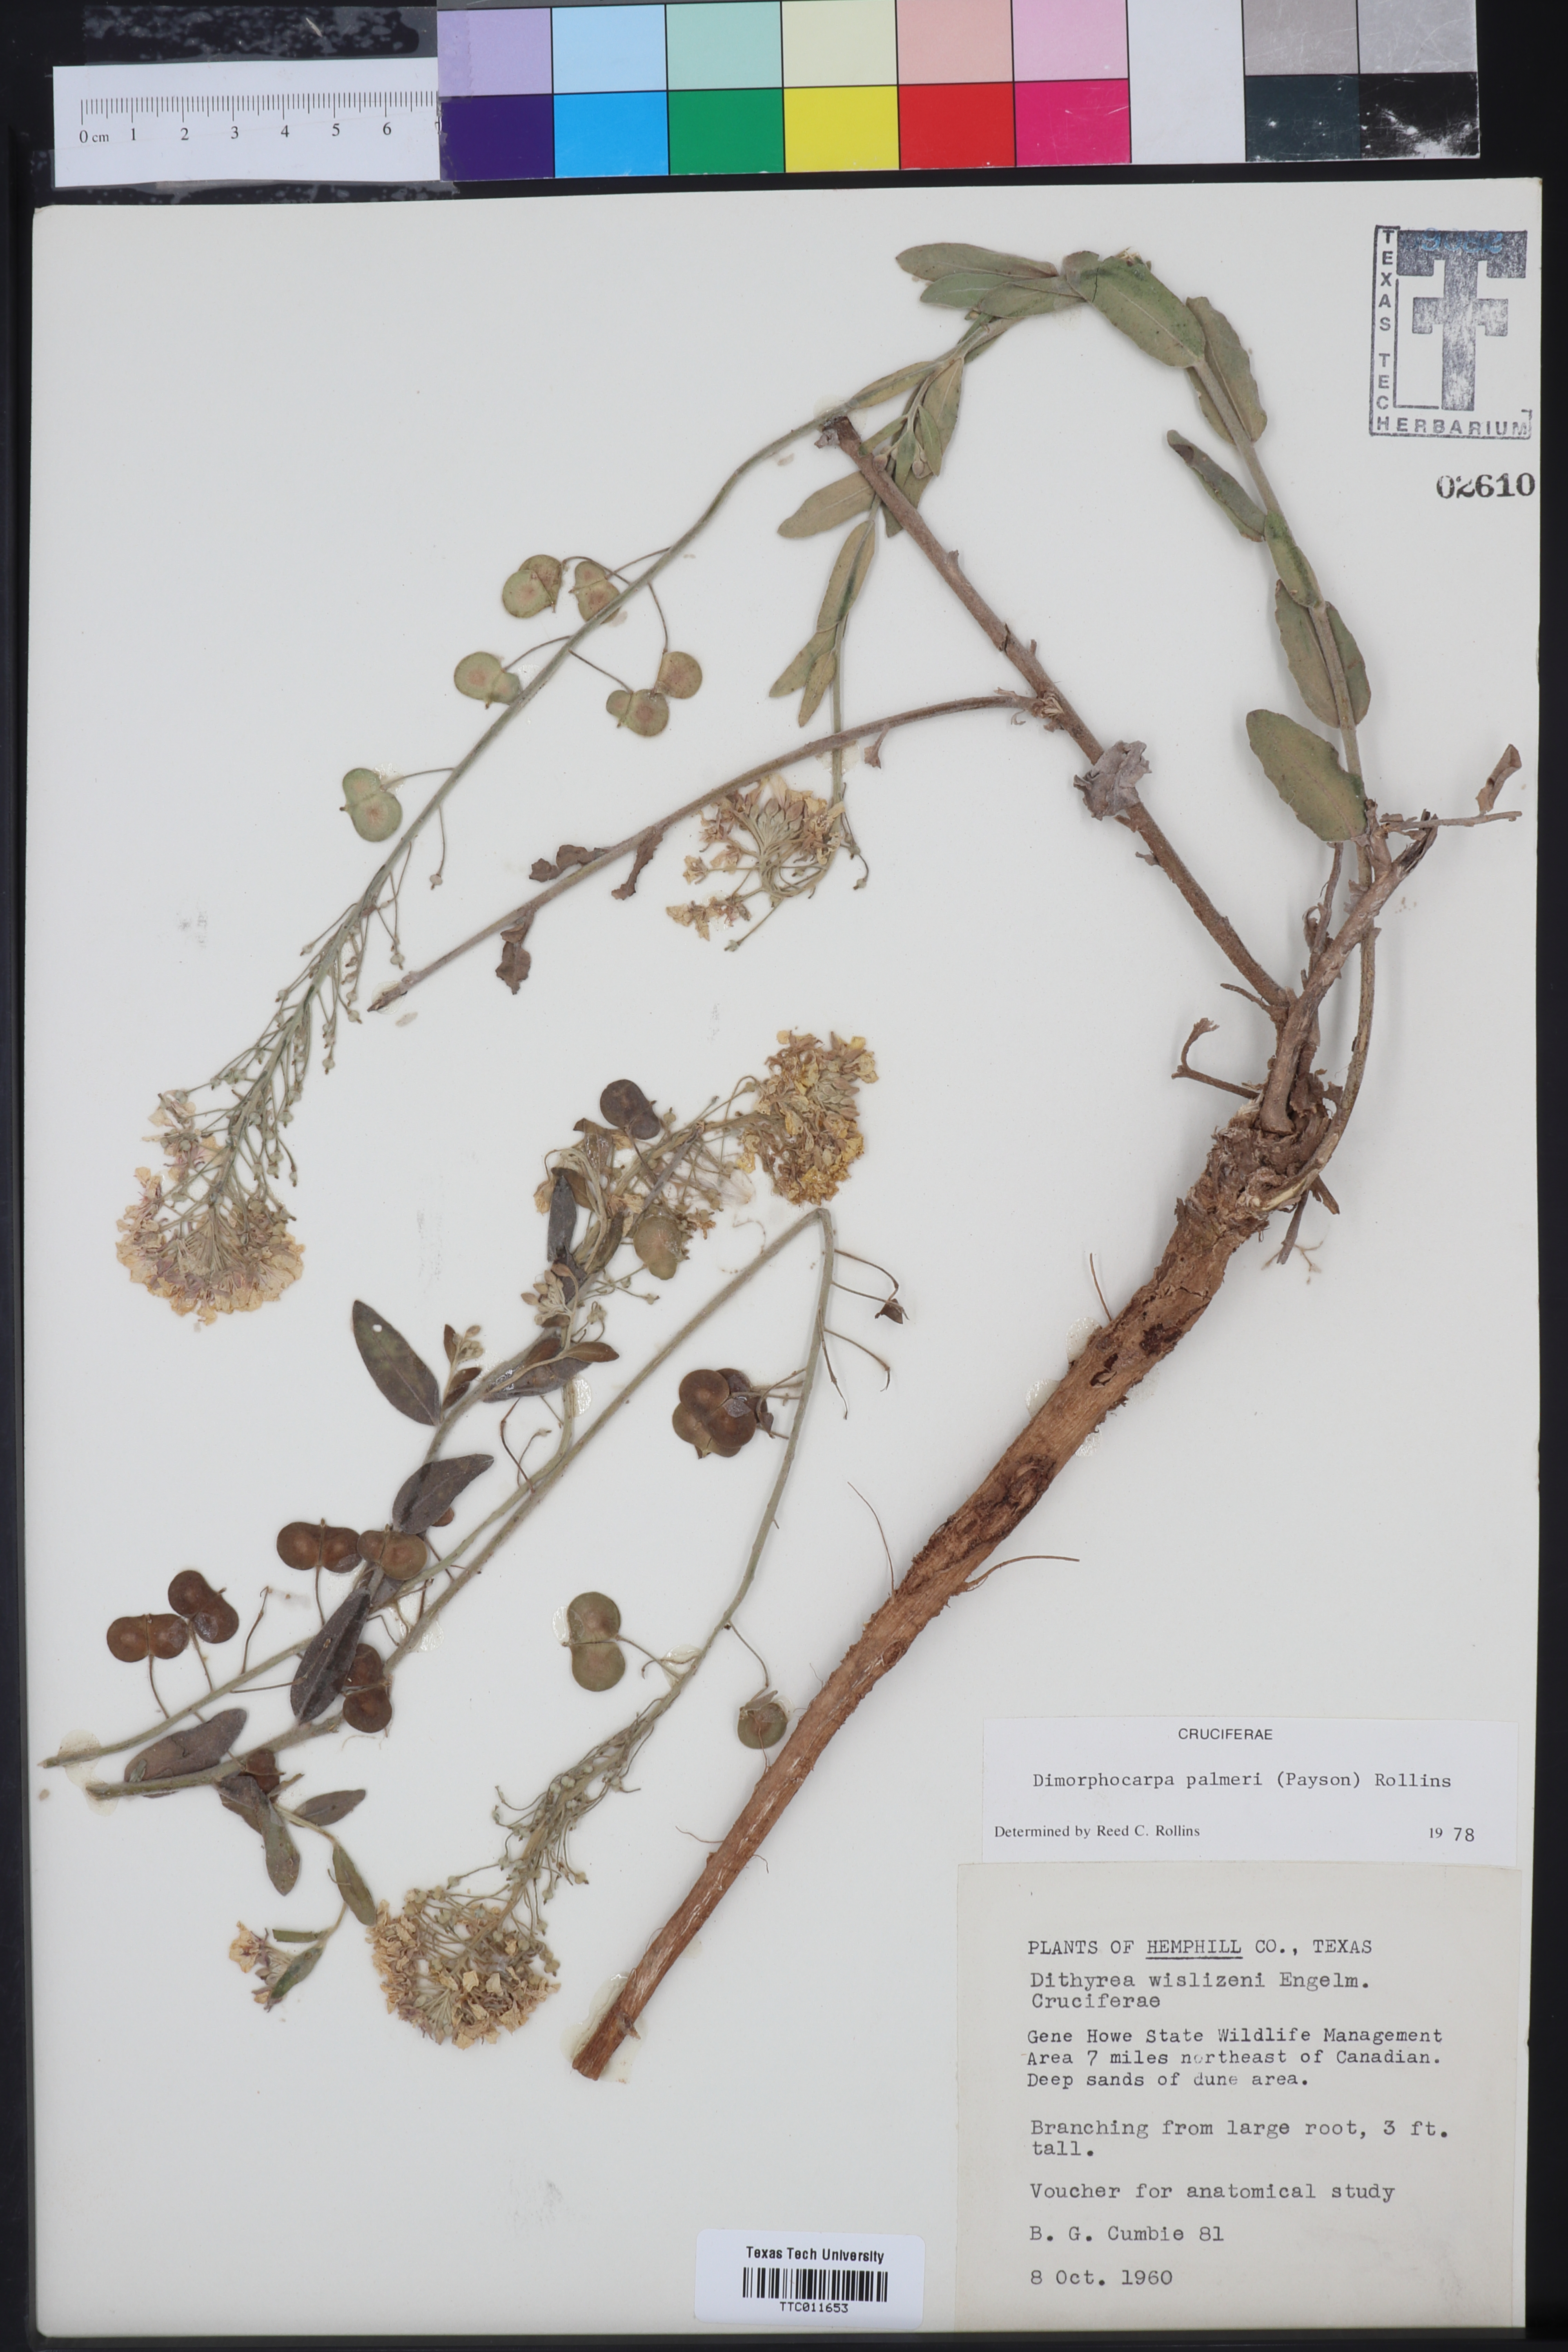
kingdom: Plantae
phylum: Tracheophyta
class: Magnoliopsida
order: Brassicales
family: Brassicaceae
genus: Dimorphocarpa
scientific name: Dimorphocarpa candicans
